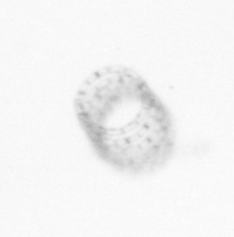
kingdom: Chromista
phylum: Ochrophyta
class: Bacillariophyceae
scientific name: Bacillariophyceae
